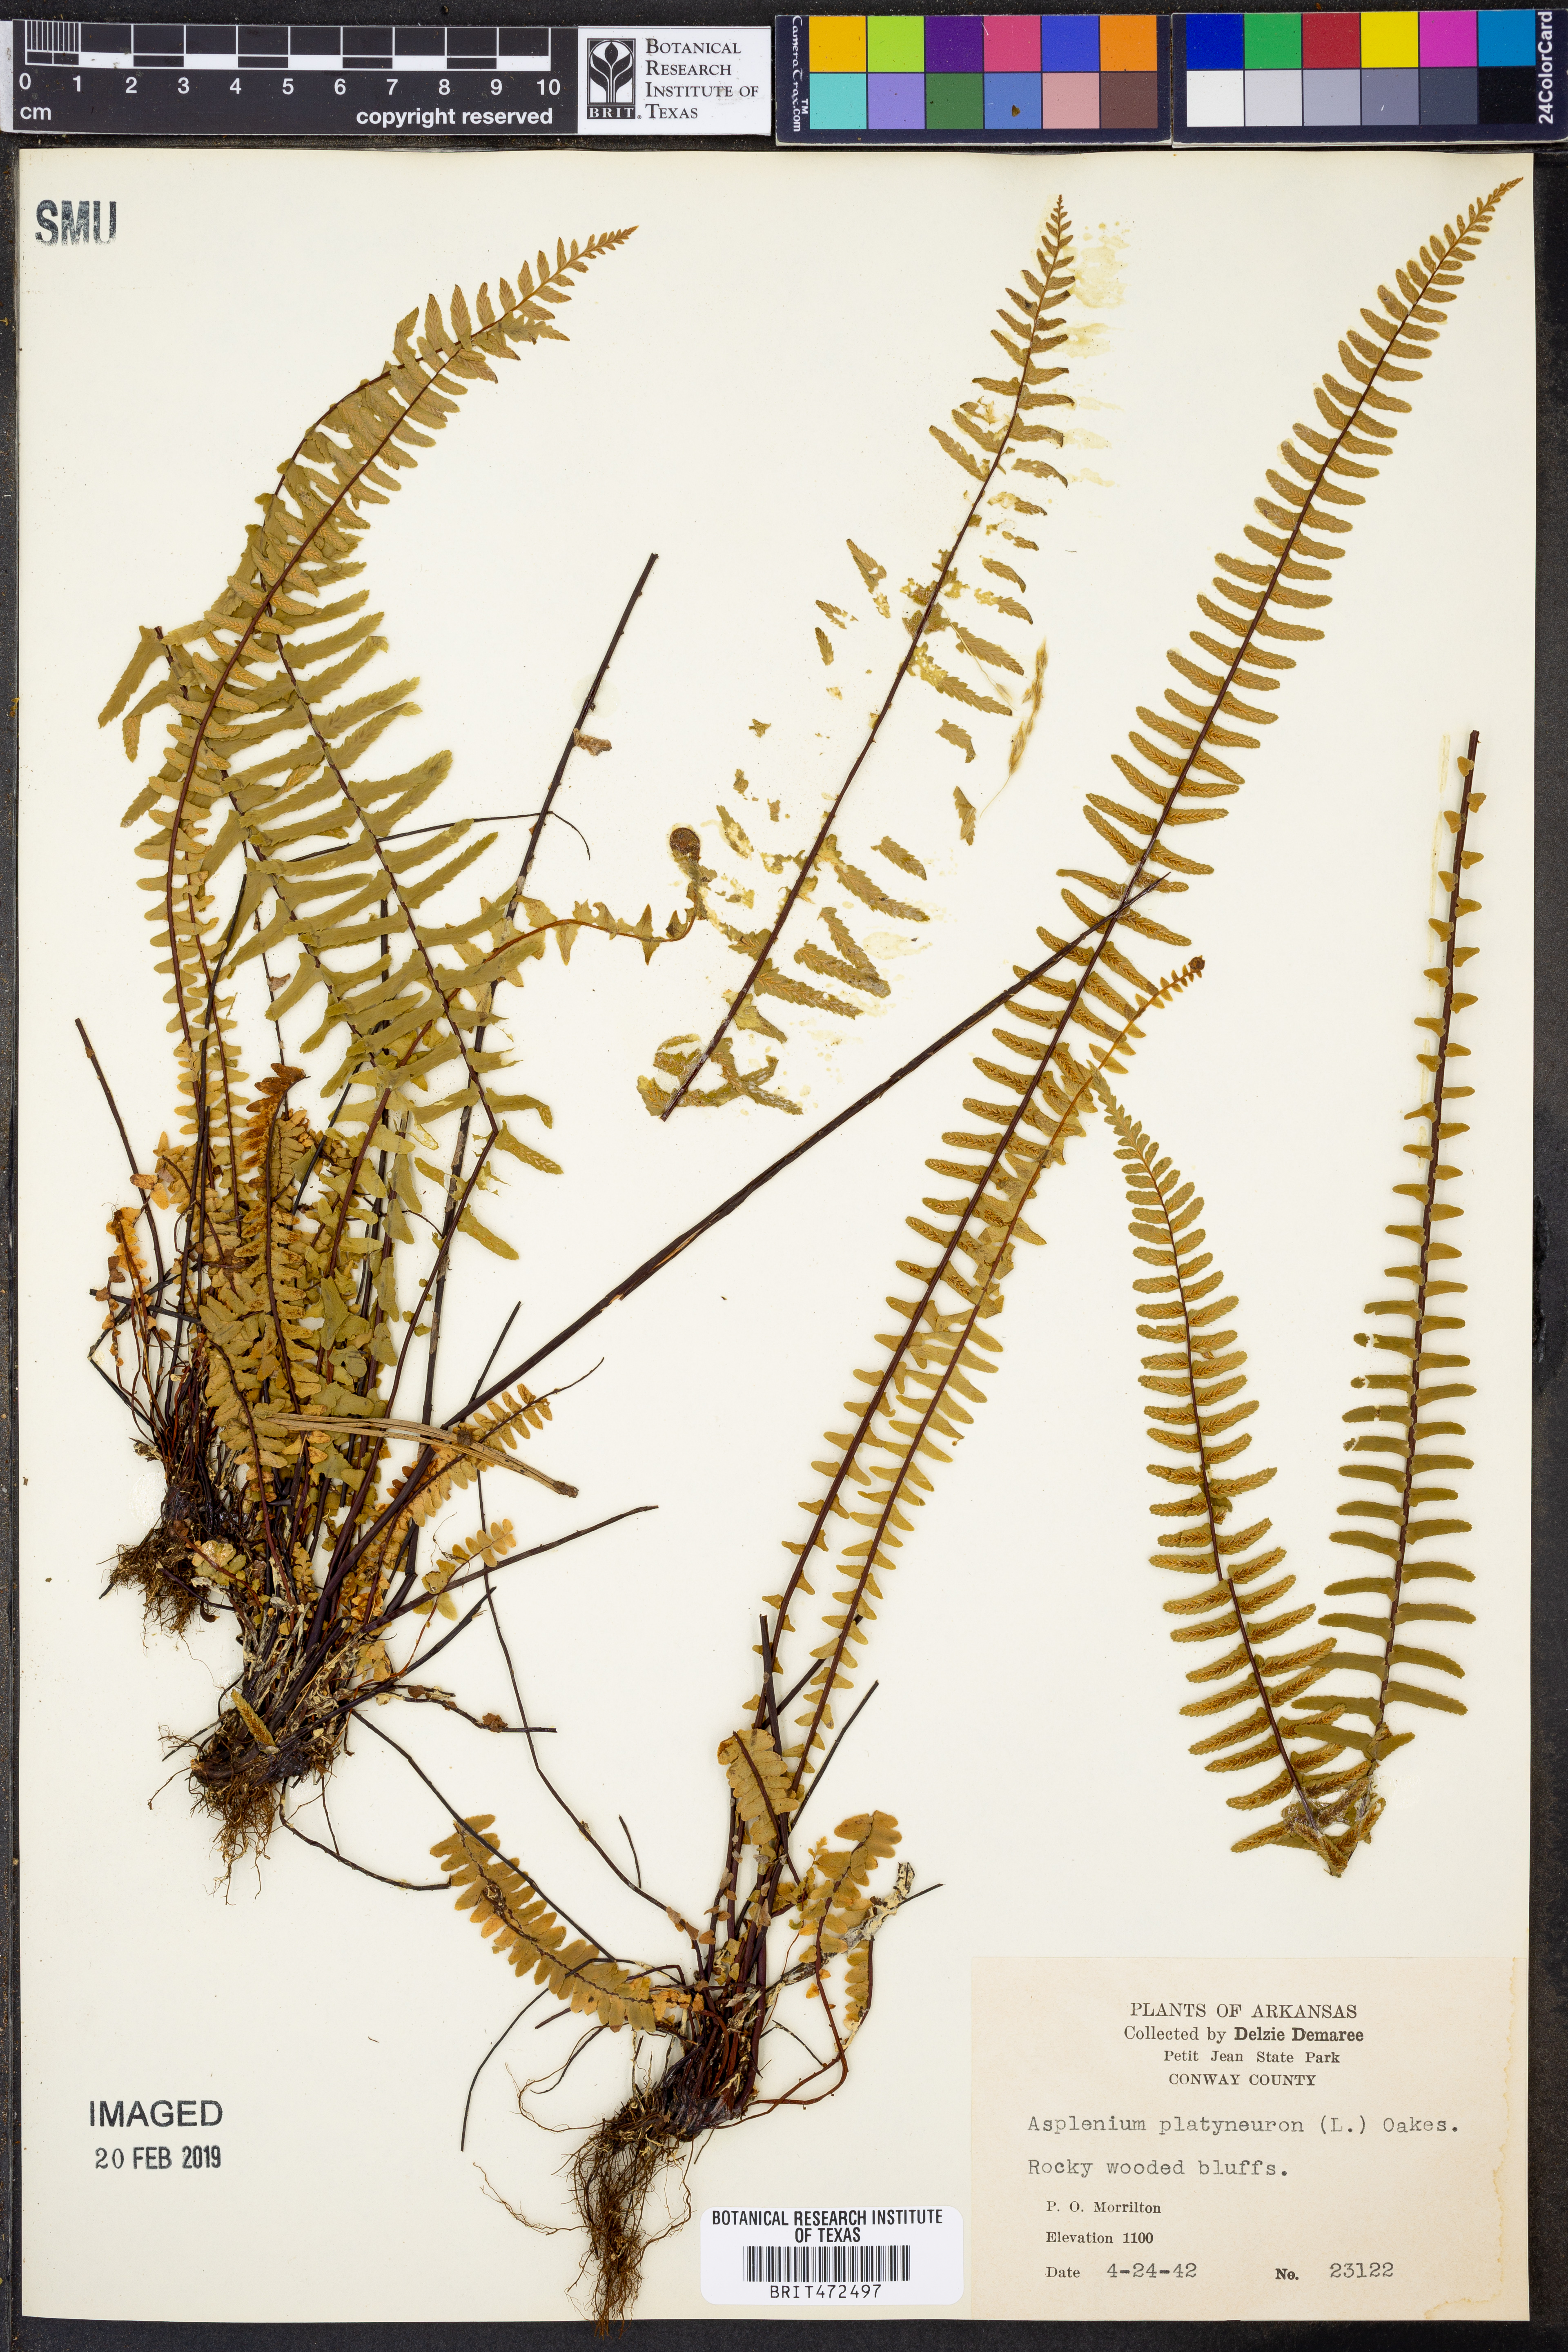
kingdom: Plantae
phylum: Tracheophyta
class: Polypodiopsida
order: Polypodiales
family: Aspleniaceae
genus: Asplenium
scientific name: Asplenium platyneuron
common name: Ebony spleenwort
